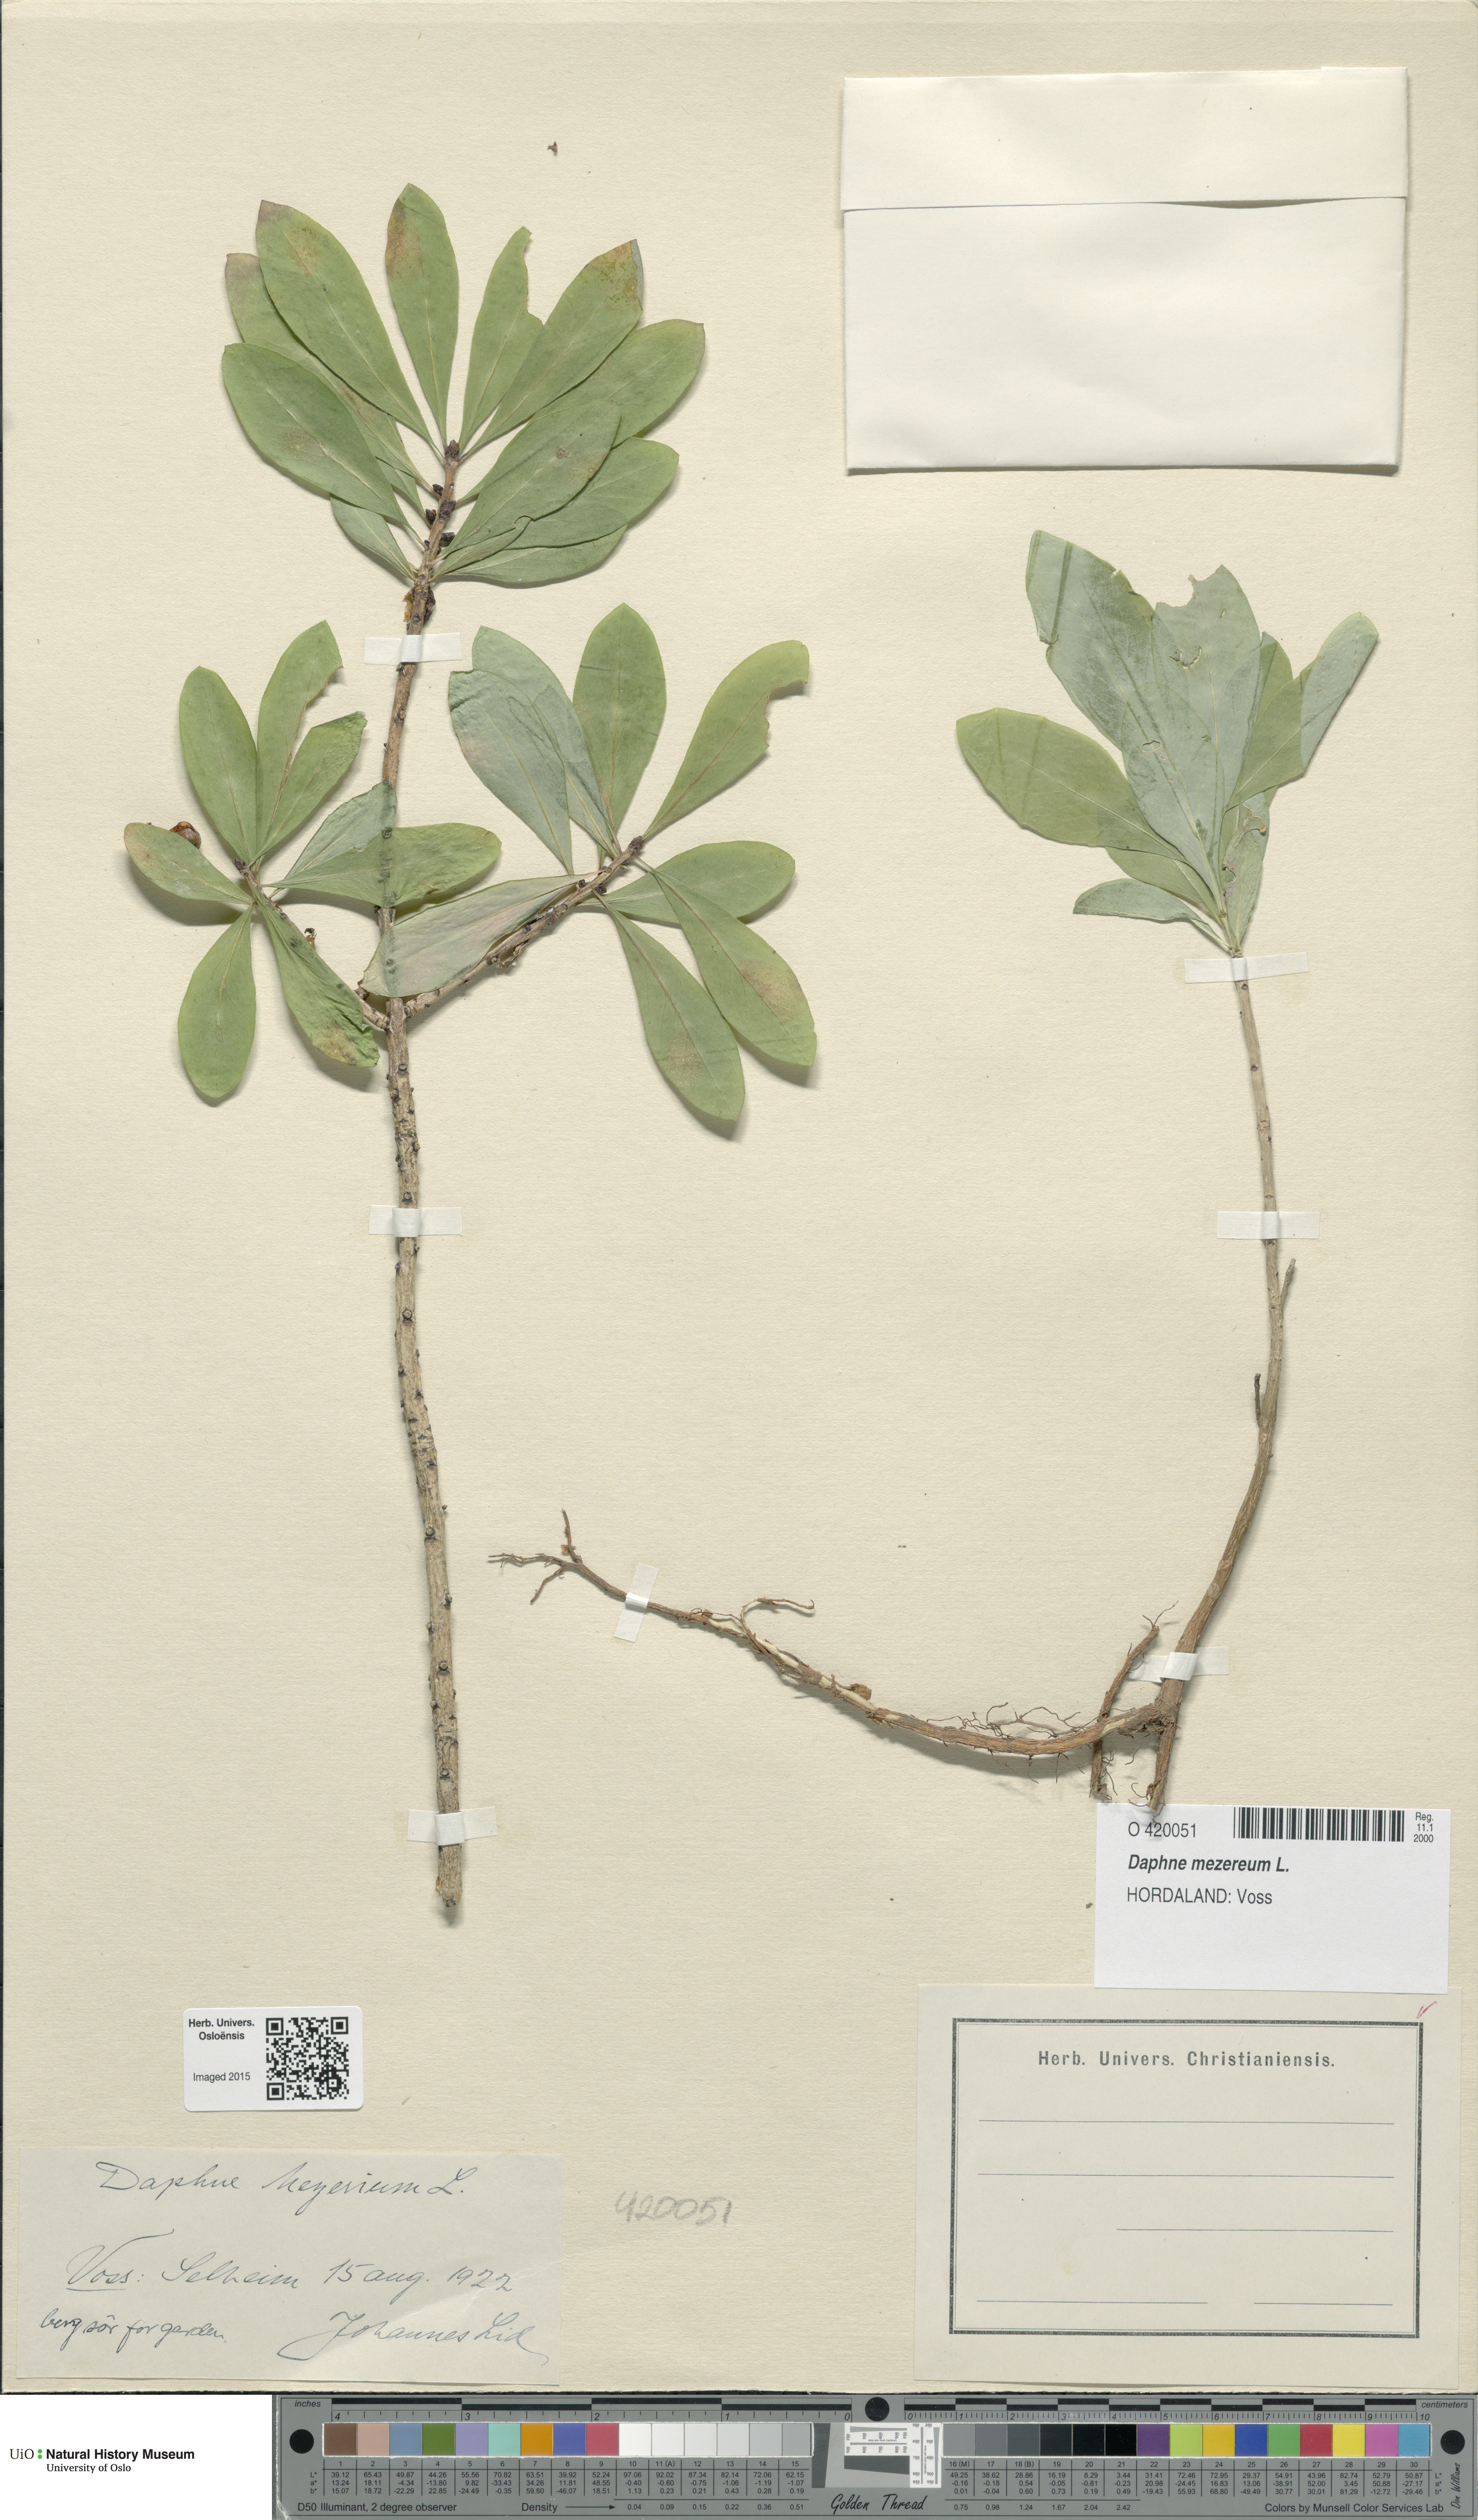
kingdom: Plantae
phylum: Tracheophyta
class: Magnoliopsida
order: Malvales
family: Thymelaeaceae
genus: Daphne
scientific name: Daphne mezereum
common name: Mezereon
